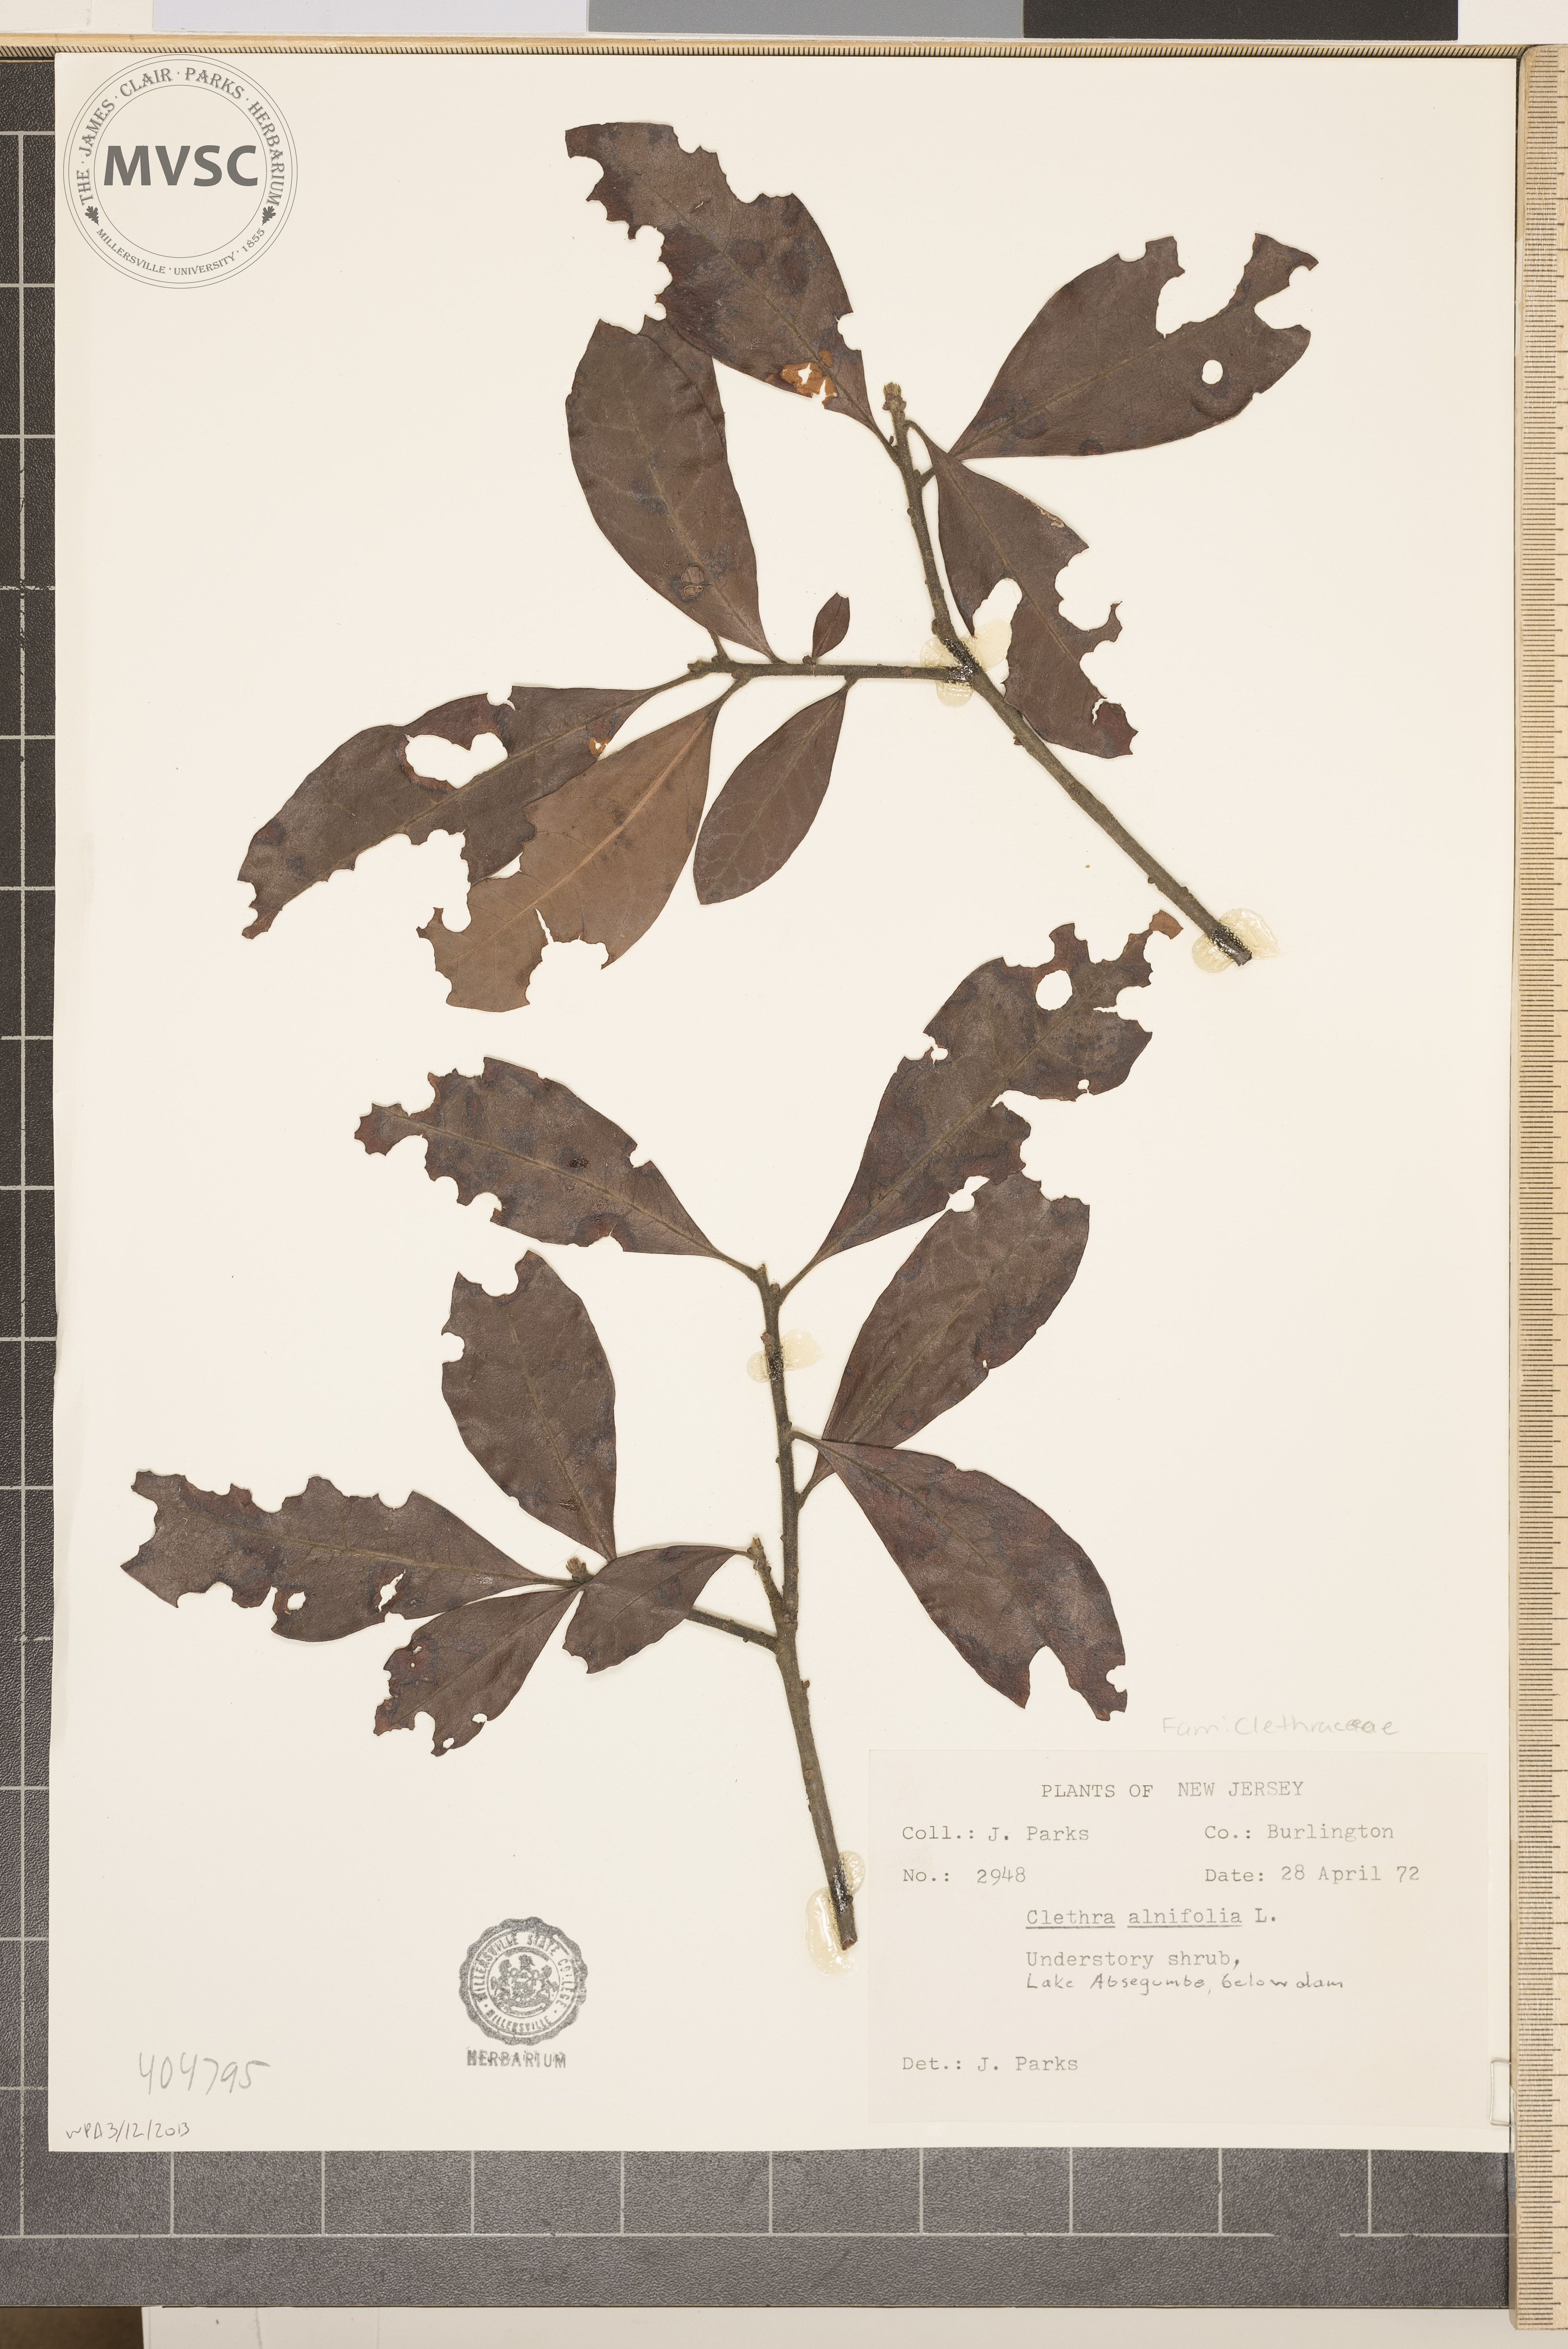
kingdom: Plantae
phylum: Tracheophyta
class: Magnoliopsida
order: Ericales
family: Clethraceae
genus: Clethra
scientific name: Clethra alnifolia
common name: Sweet pepperbush
